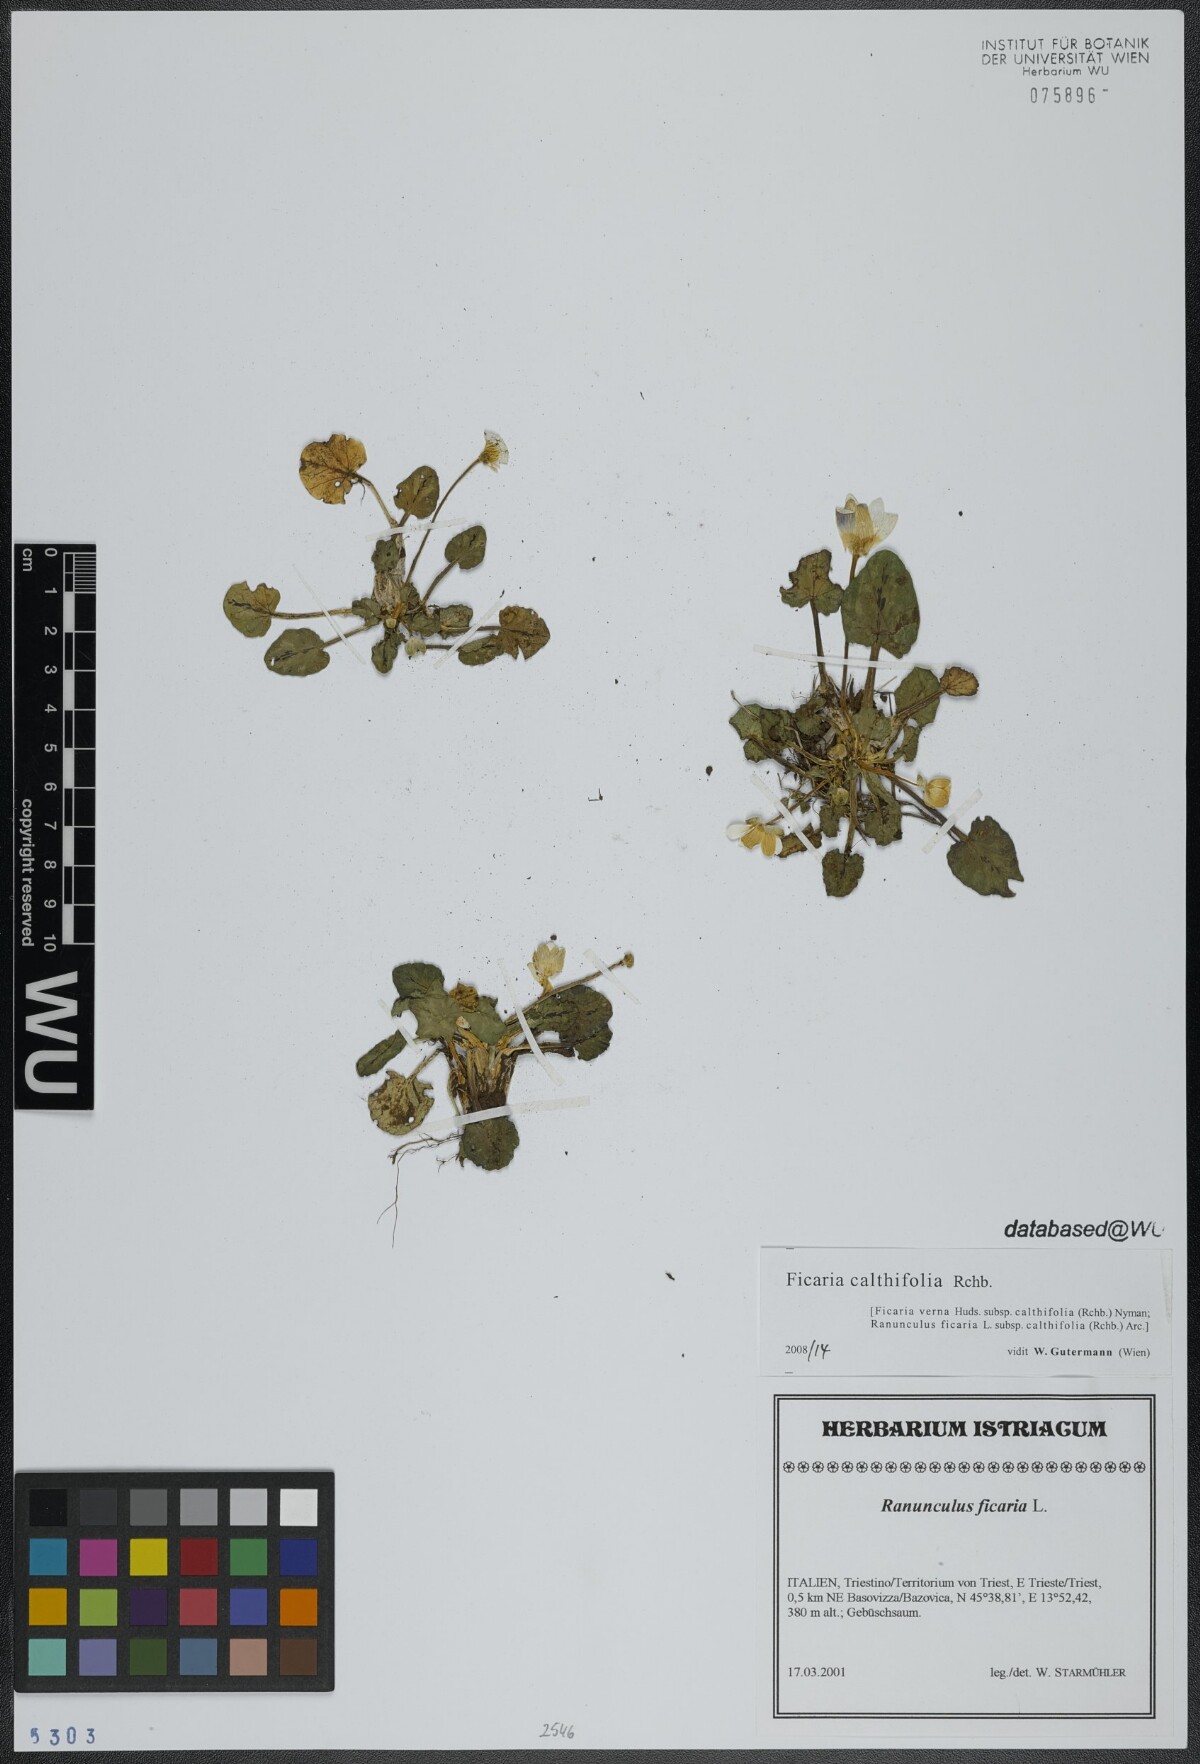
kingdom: Plantae
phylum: Tracheophyta
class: Magnoliopsida
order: Ranunculales
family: Ranunculaceae
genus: Ficaria
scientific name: Ficaria calthifolia
